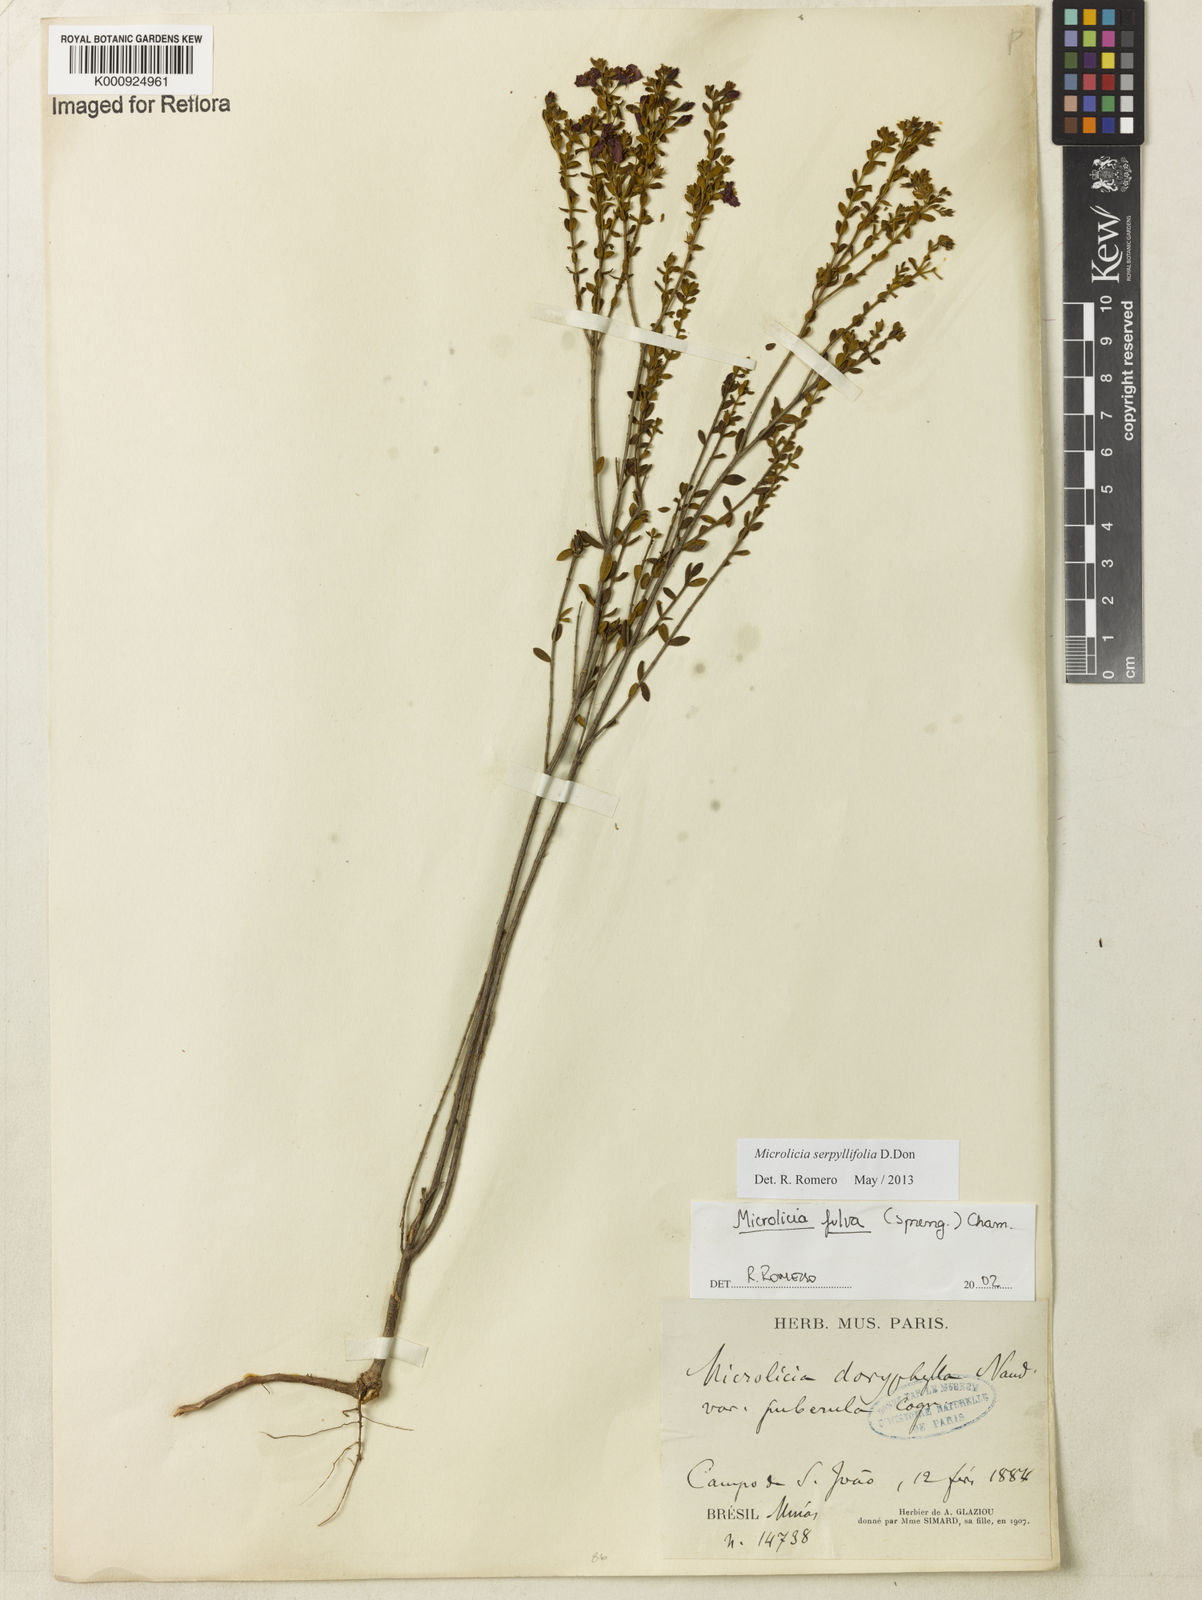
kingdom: Plantae
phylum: Tracheophyta
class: Magnoliopsida
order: Myrtales
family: Melastomataceae
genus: Microlicia
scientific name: Microlicia fulva
